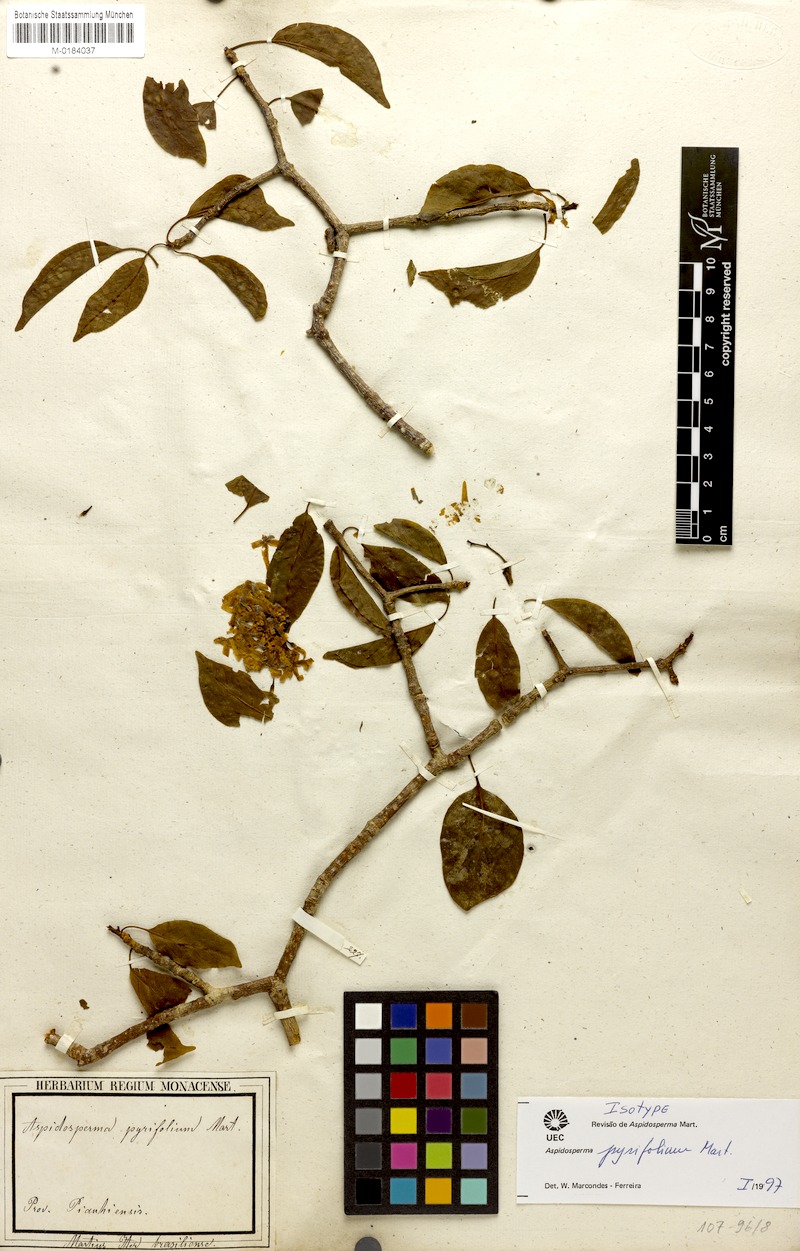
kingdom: Plantae
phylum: Tracheophyta
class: Magnoliopsida
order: Gentianales
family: Apocynaceae
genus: Aspidosperma
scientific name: Aspidosperma pyrifolium
